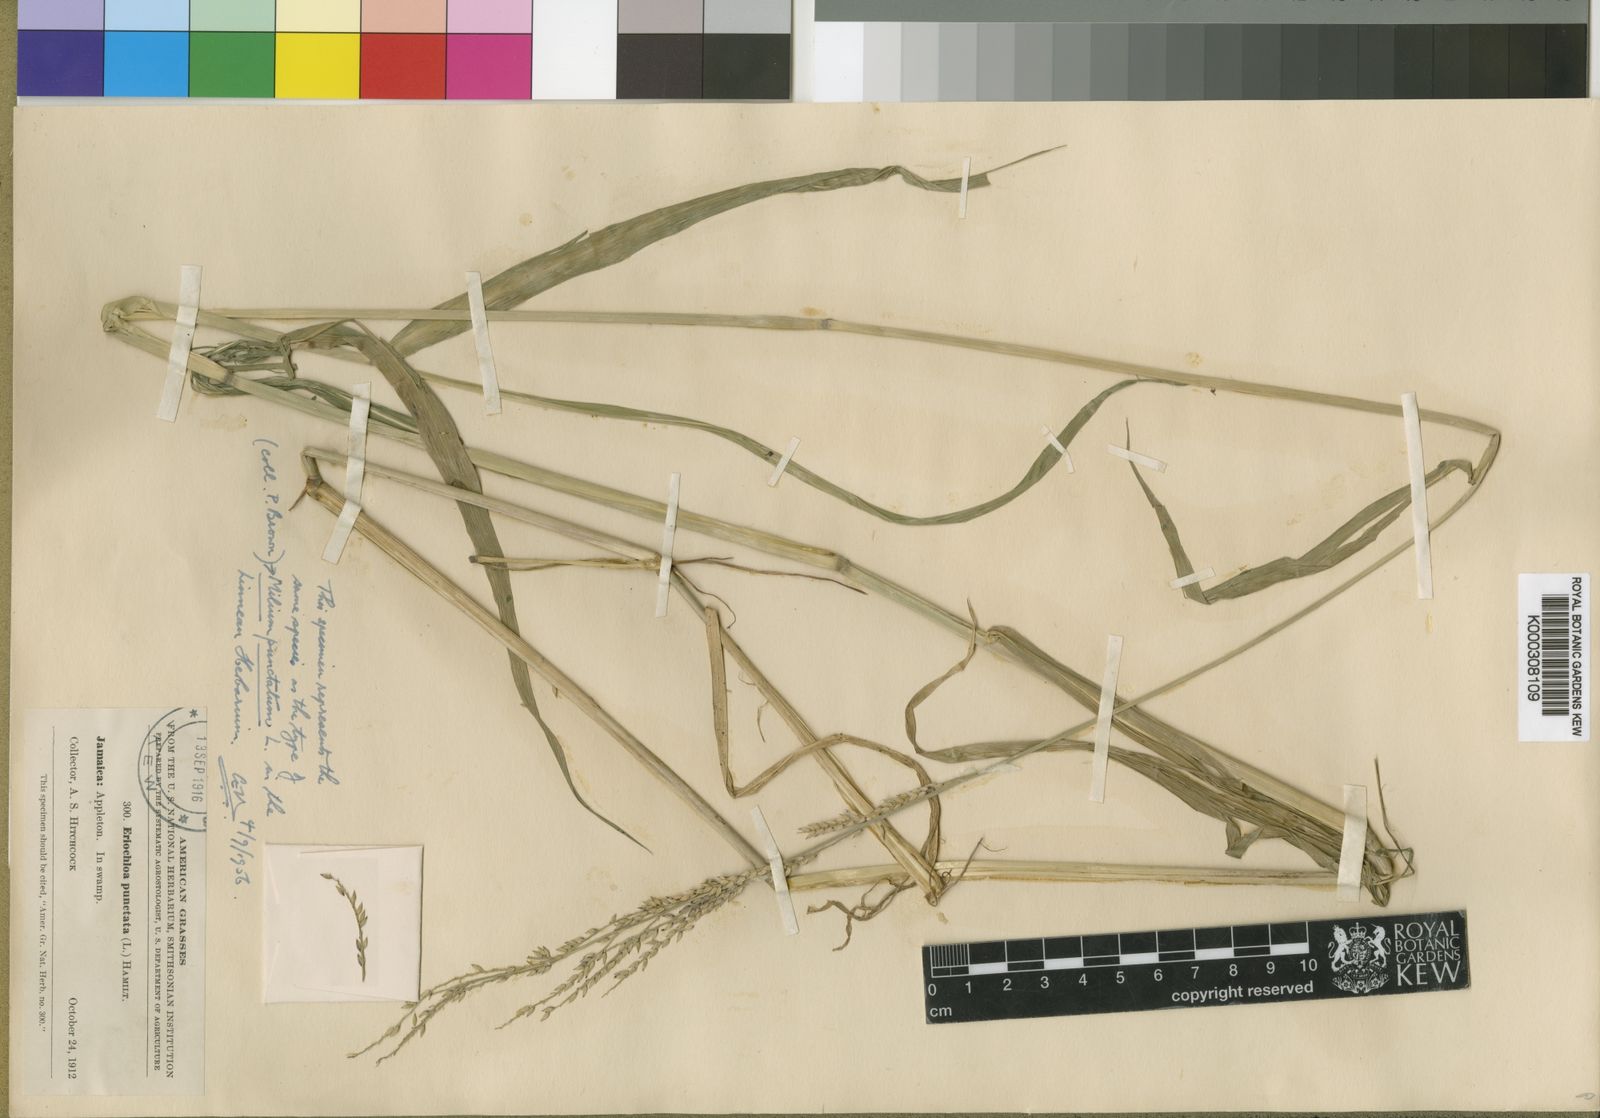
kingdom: Plantae
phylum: Tracheophyta
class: Liliopsida
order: Poales
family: Poaceae
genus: Eriochloa
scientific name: Eriochloa punctata
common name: Louisiana cupgrass
